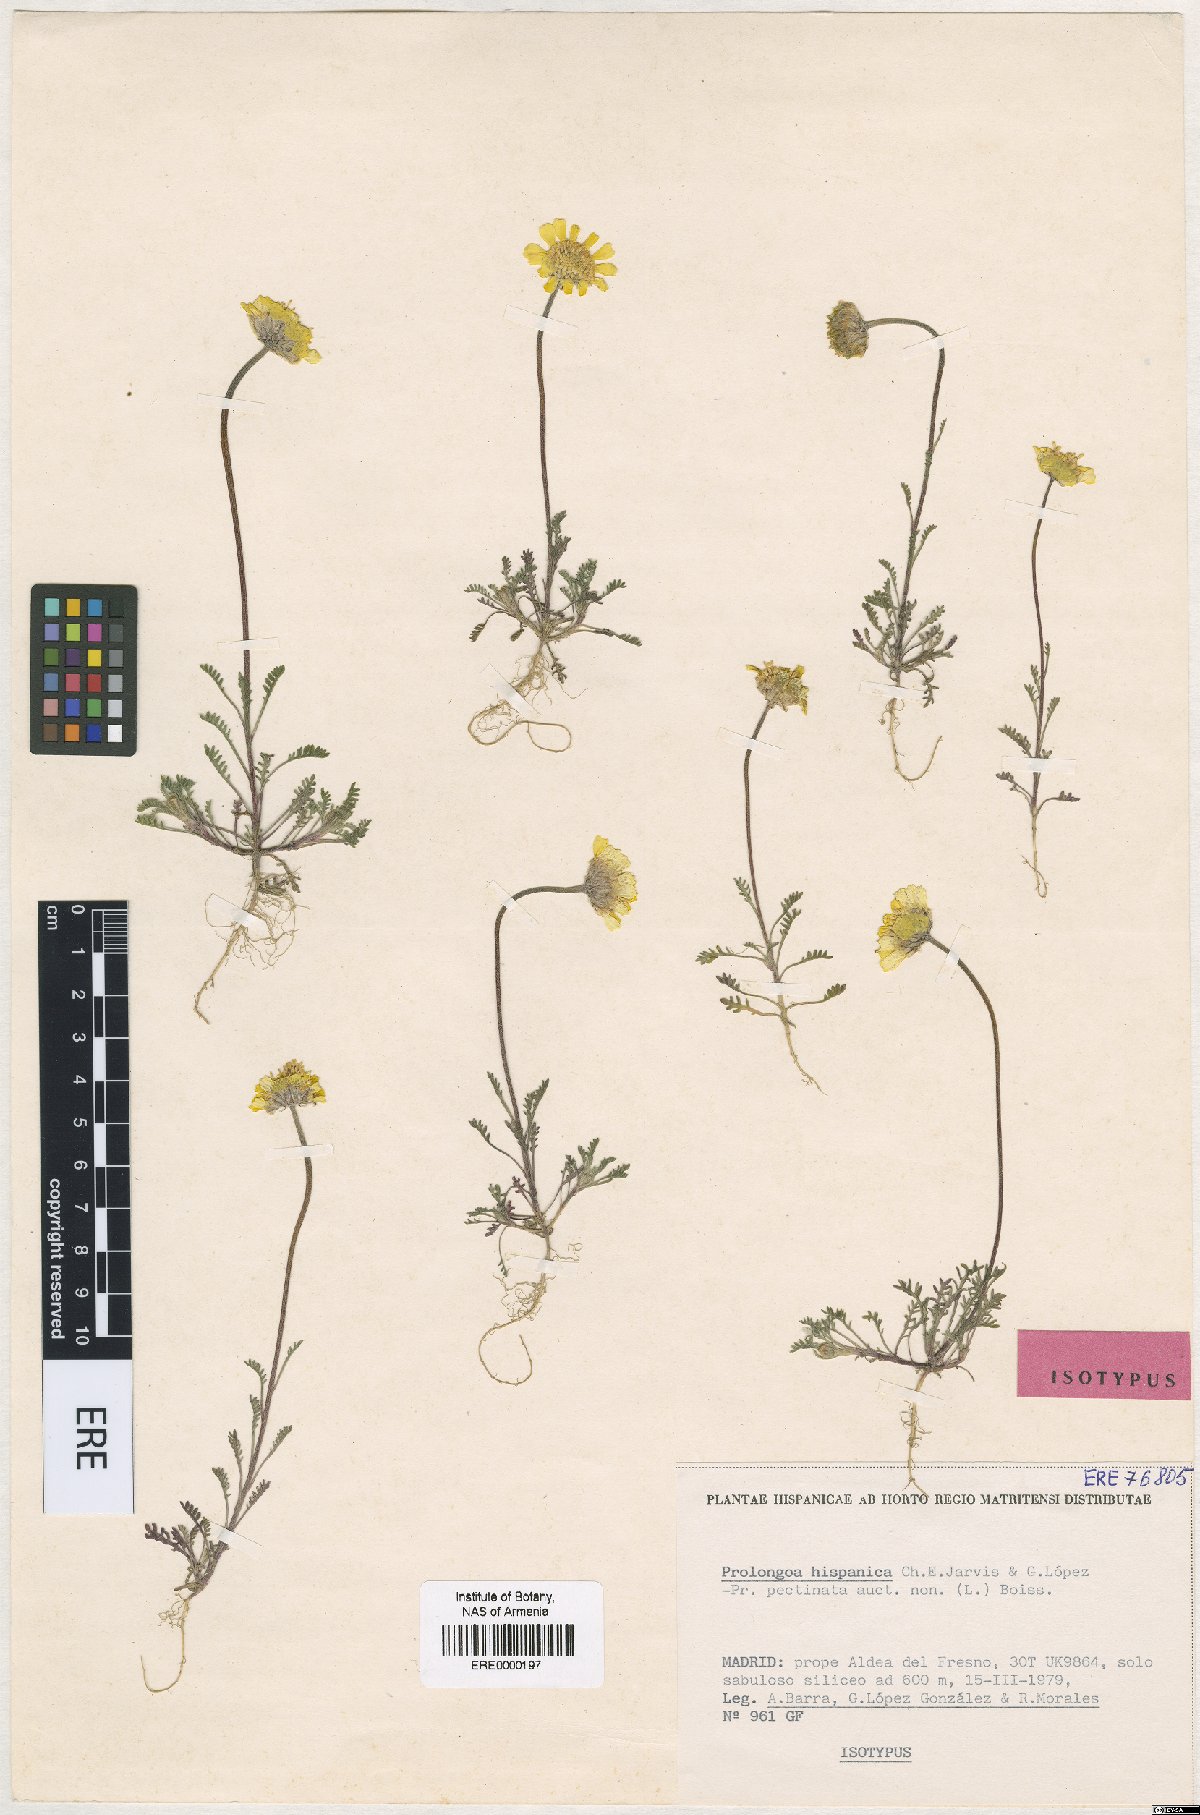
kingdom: Plantae
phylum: Tracheophyta
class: Magnoliopsida
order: Asterales
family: Asteraceae
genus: Prolongoa
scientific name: Prolongoa hispanica
